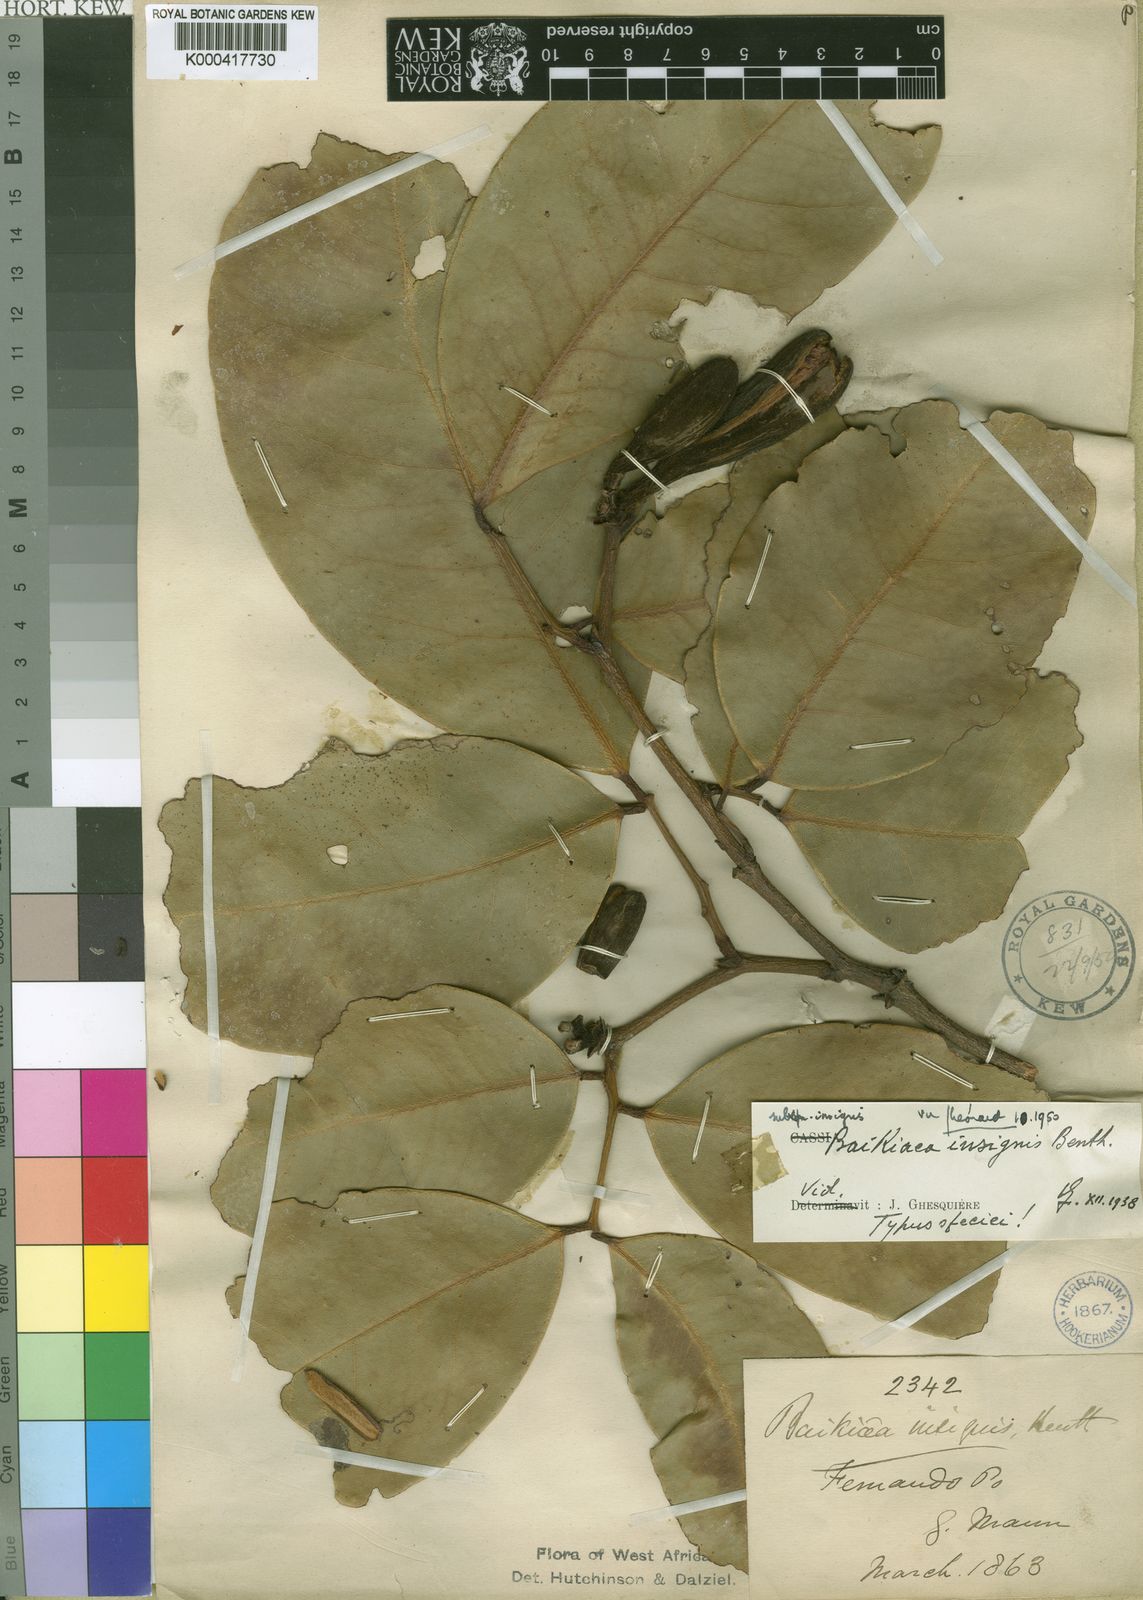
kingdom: Plantae
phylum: Tracheophyta
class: Magnoliopsida
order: Fabales
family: Fabaceae
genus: Baikiaea
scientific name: Baikiaea insignis
